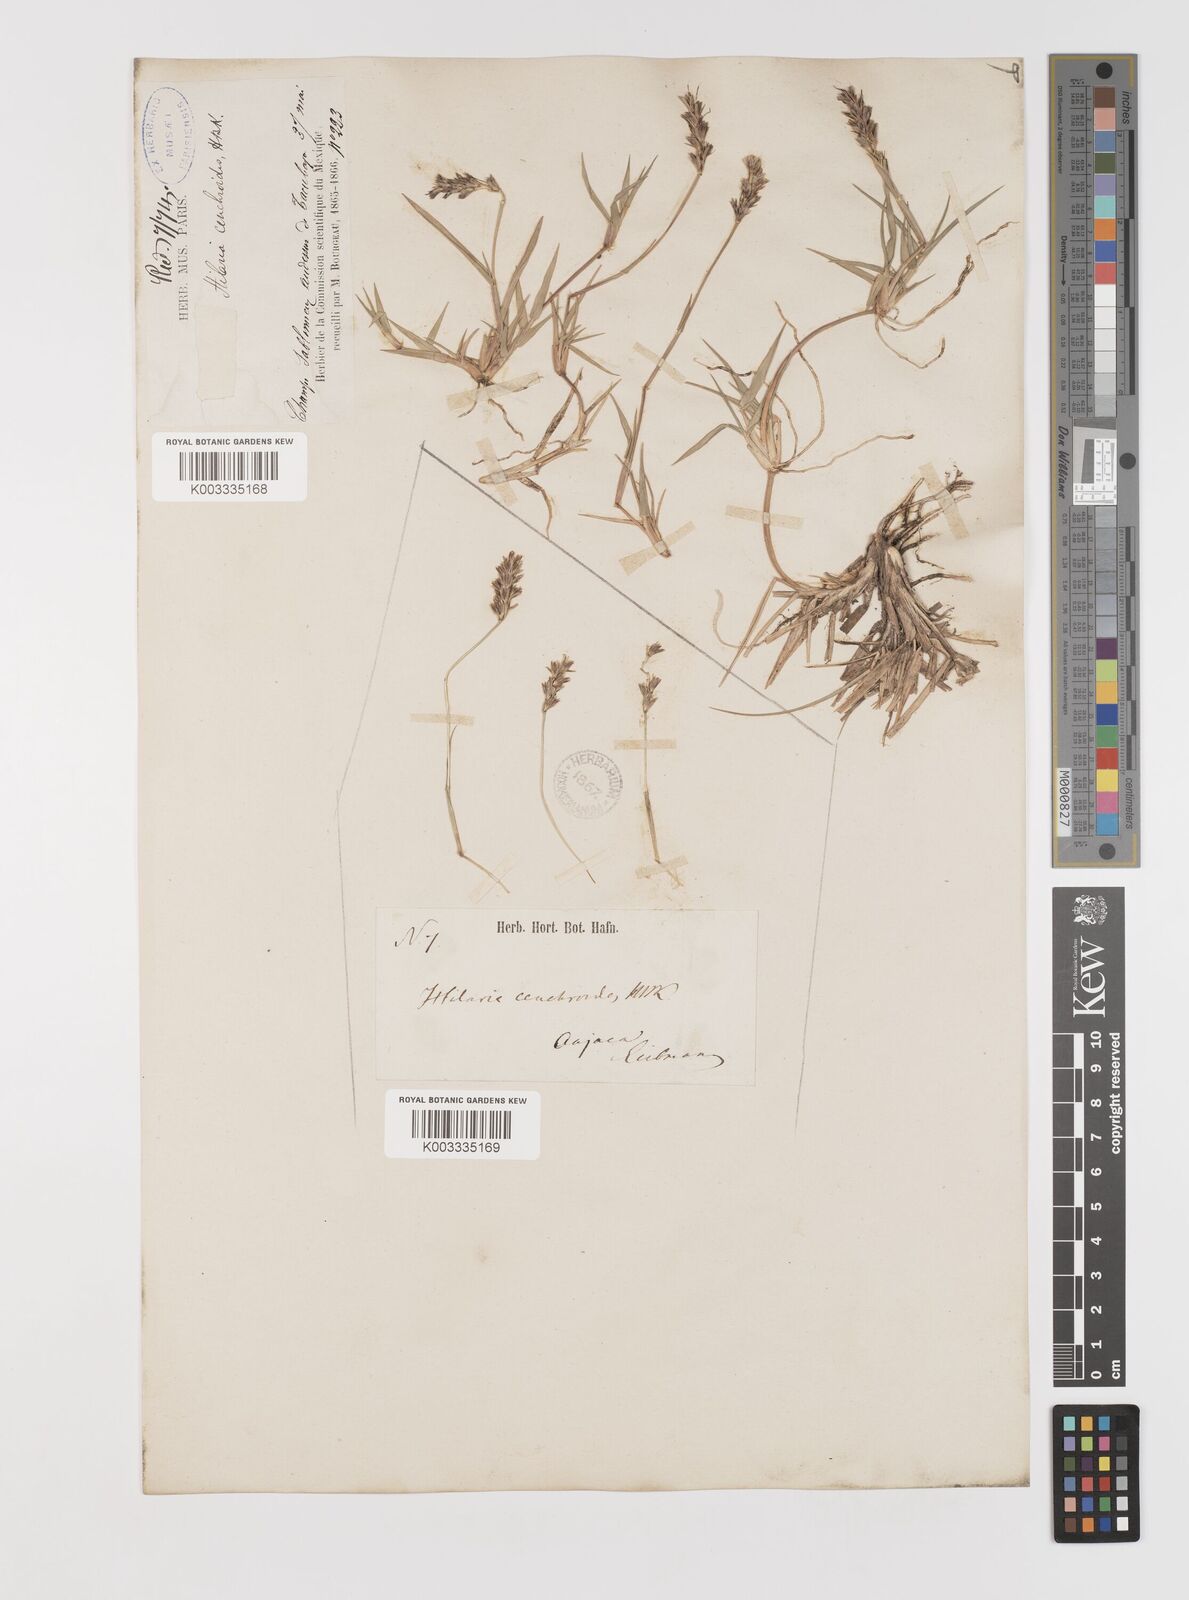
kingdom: Plantae
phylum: Tracheophyta
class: Liliopsida
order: Poales
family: Poaceae
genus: Hilaria
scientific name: Hilaria cenchroides
